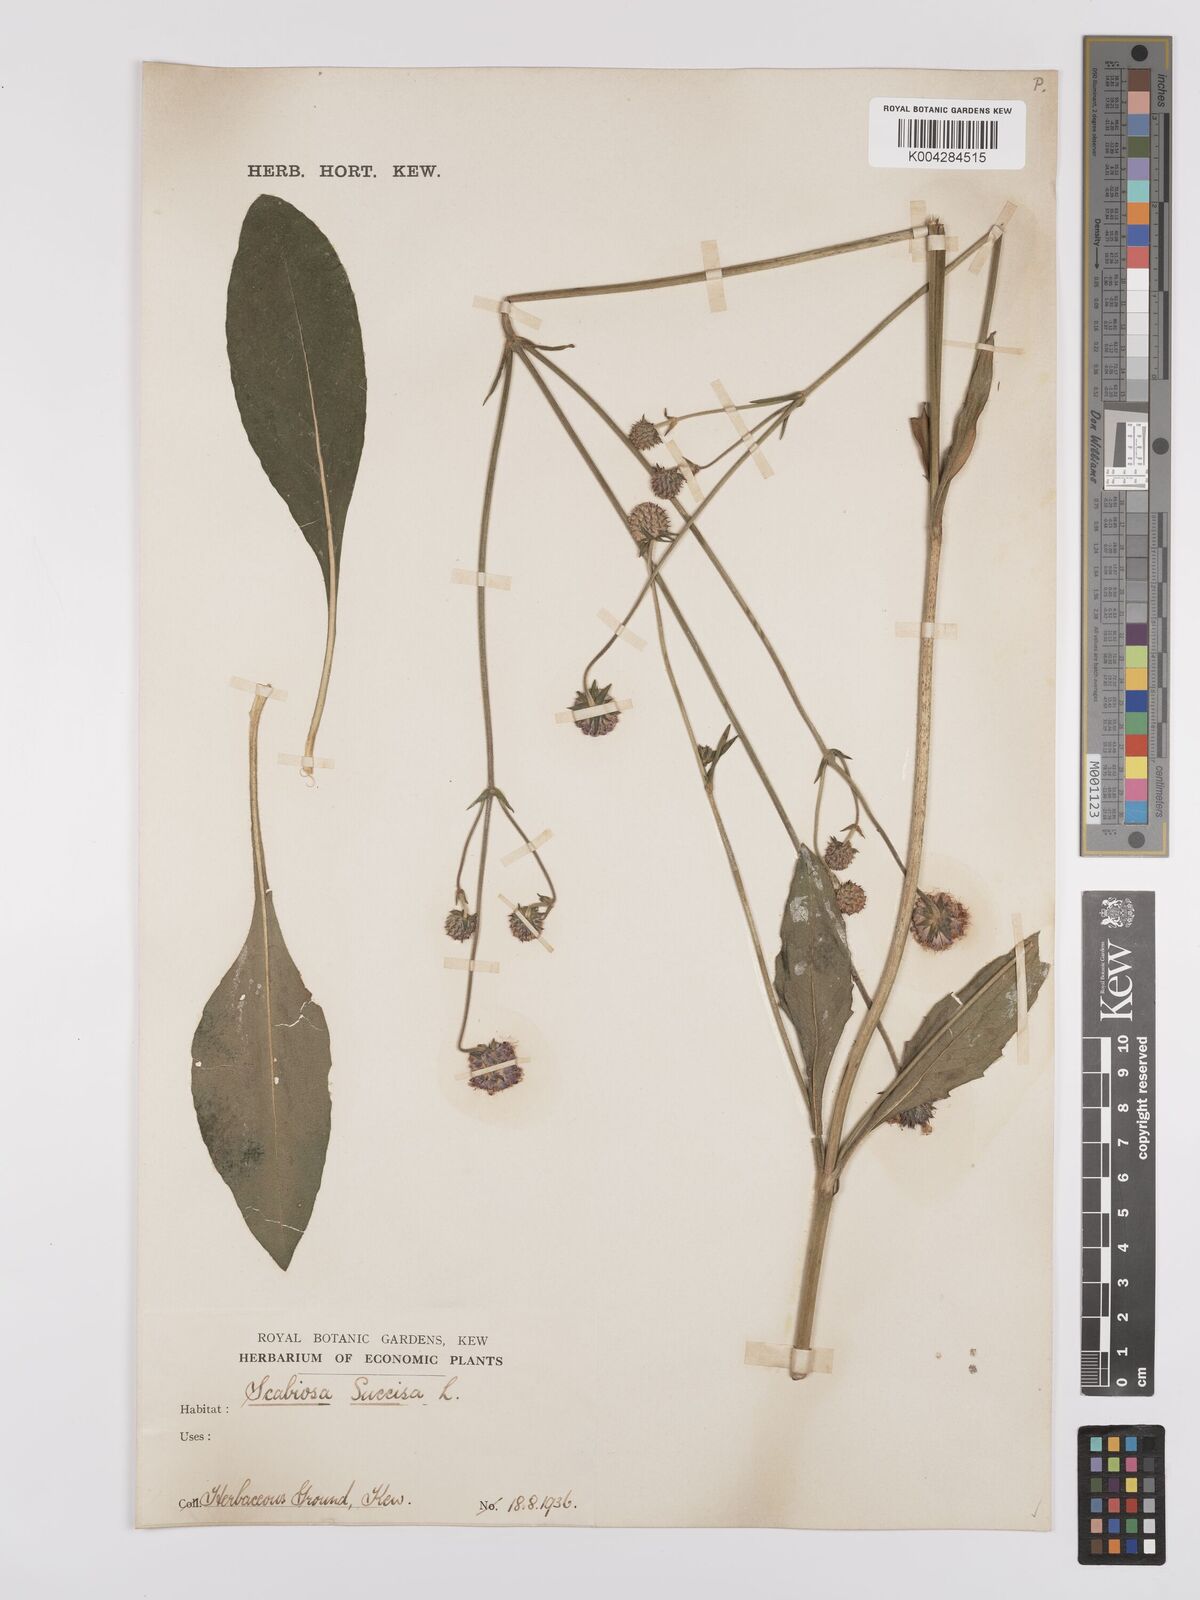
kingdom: Plantae
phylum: Tracheophyta
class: Magnoliopsida
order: Dipsacales
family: Caprifoliaceae
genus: Succisa
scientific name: Succisa pratensis
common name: Devil's-bit
